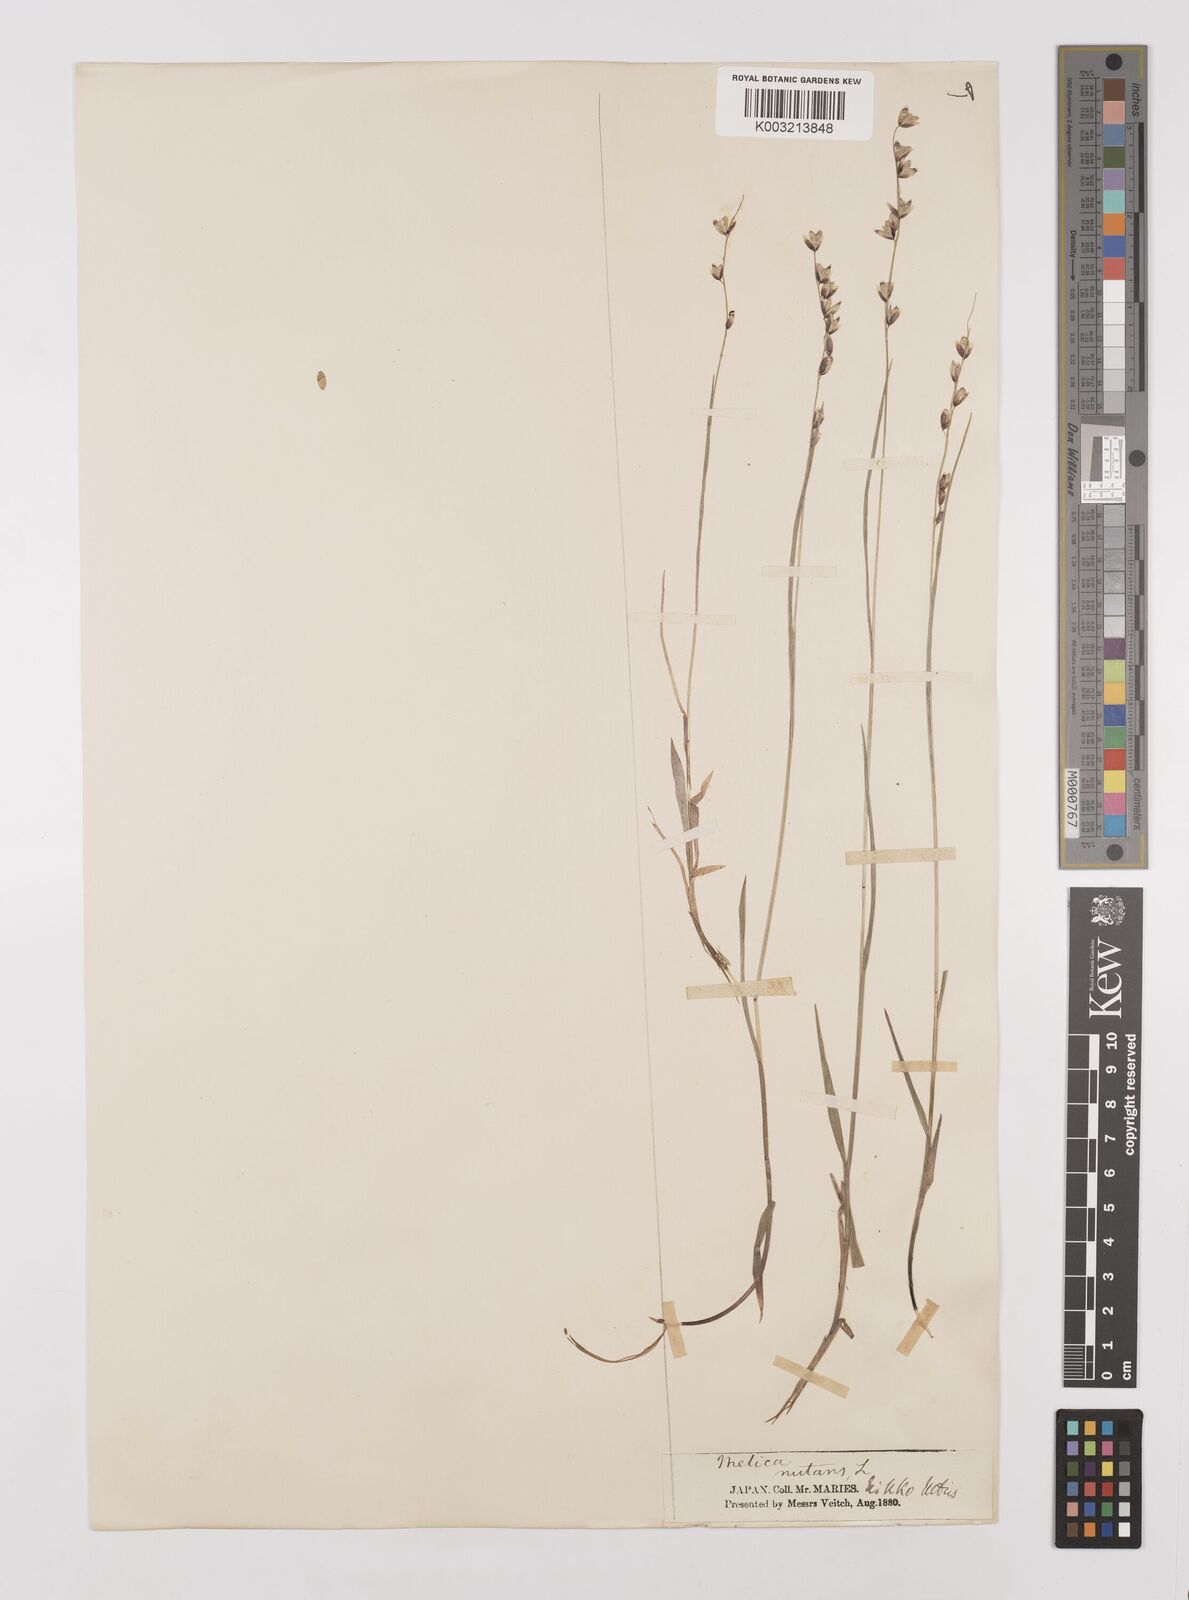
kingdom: Plantae
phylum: Tracheophyta
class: Liliopsida
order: Poales
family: Poaceae
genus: Melica
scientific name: Melica nutans
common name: Mountain melick
